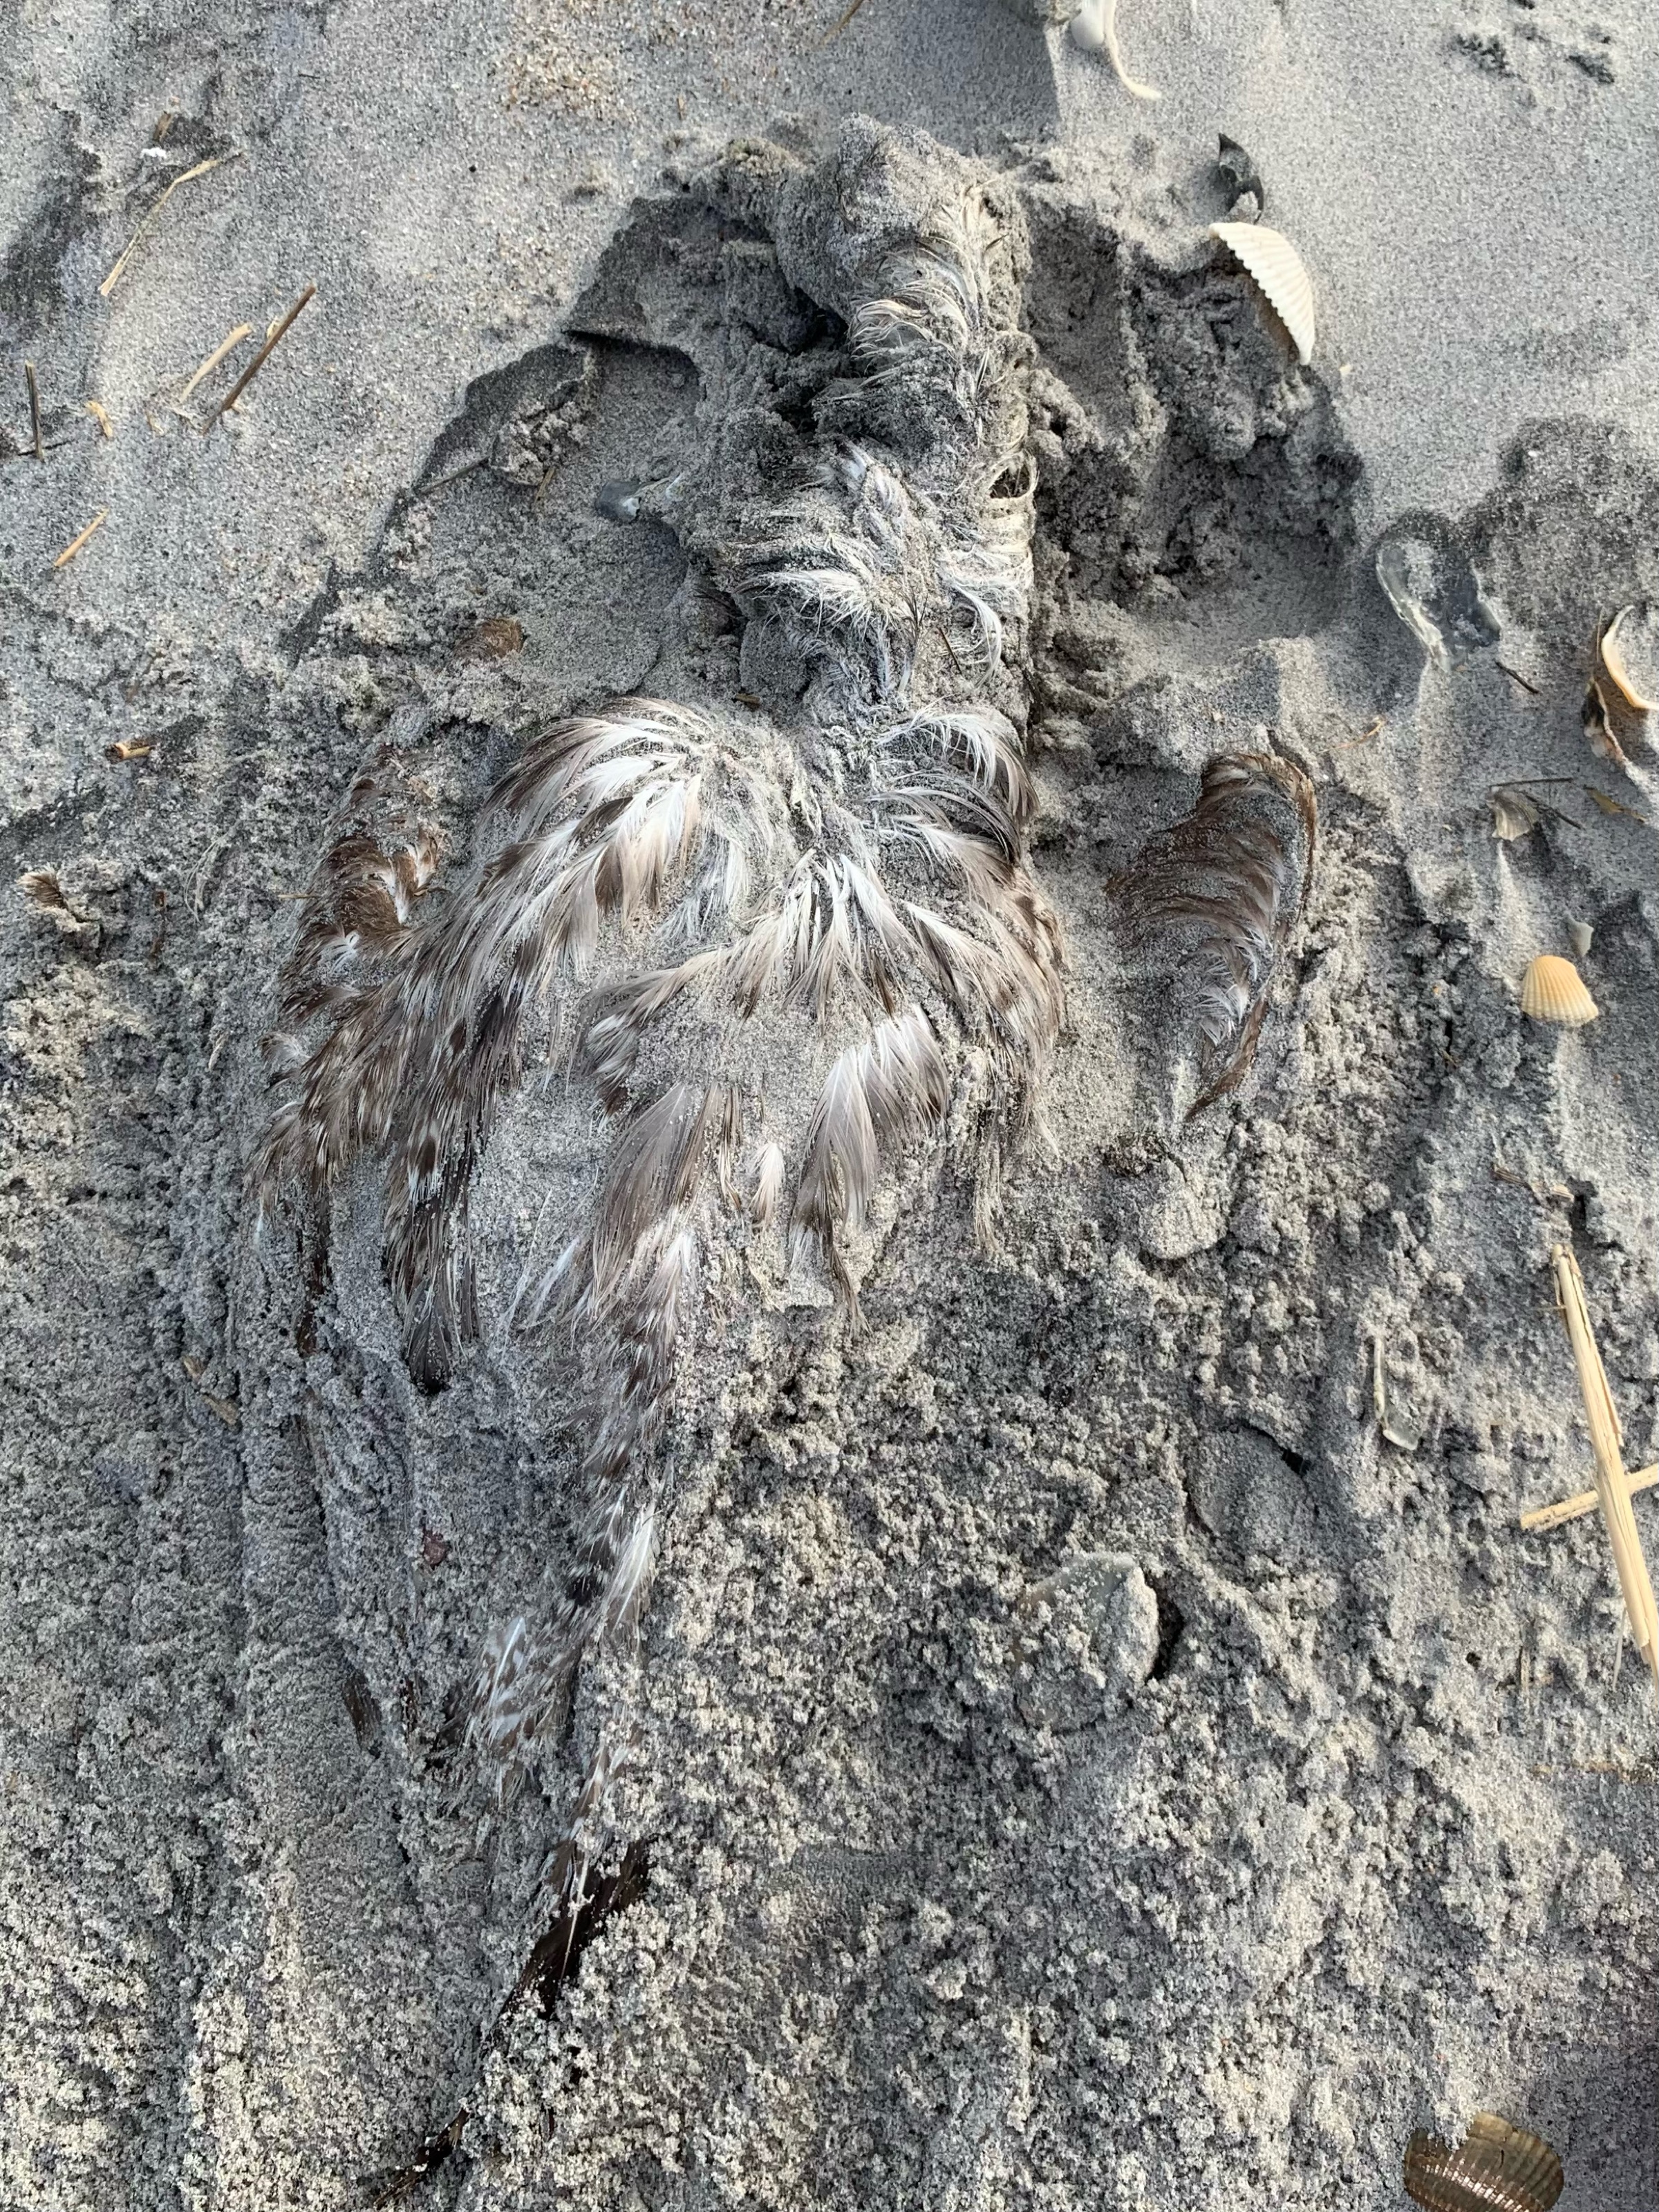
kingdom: Animalia
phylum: Chordata
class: Aves
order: Charadriiformes
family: Laridae
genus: Larus
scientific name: Larus delawarensis
